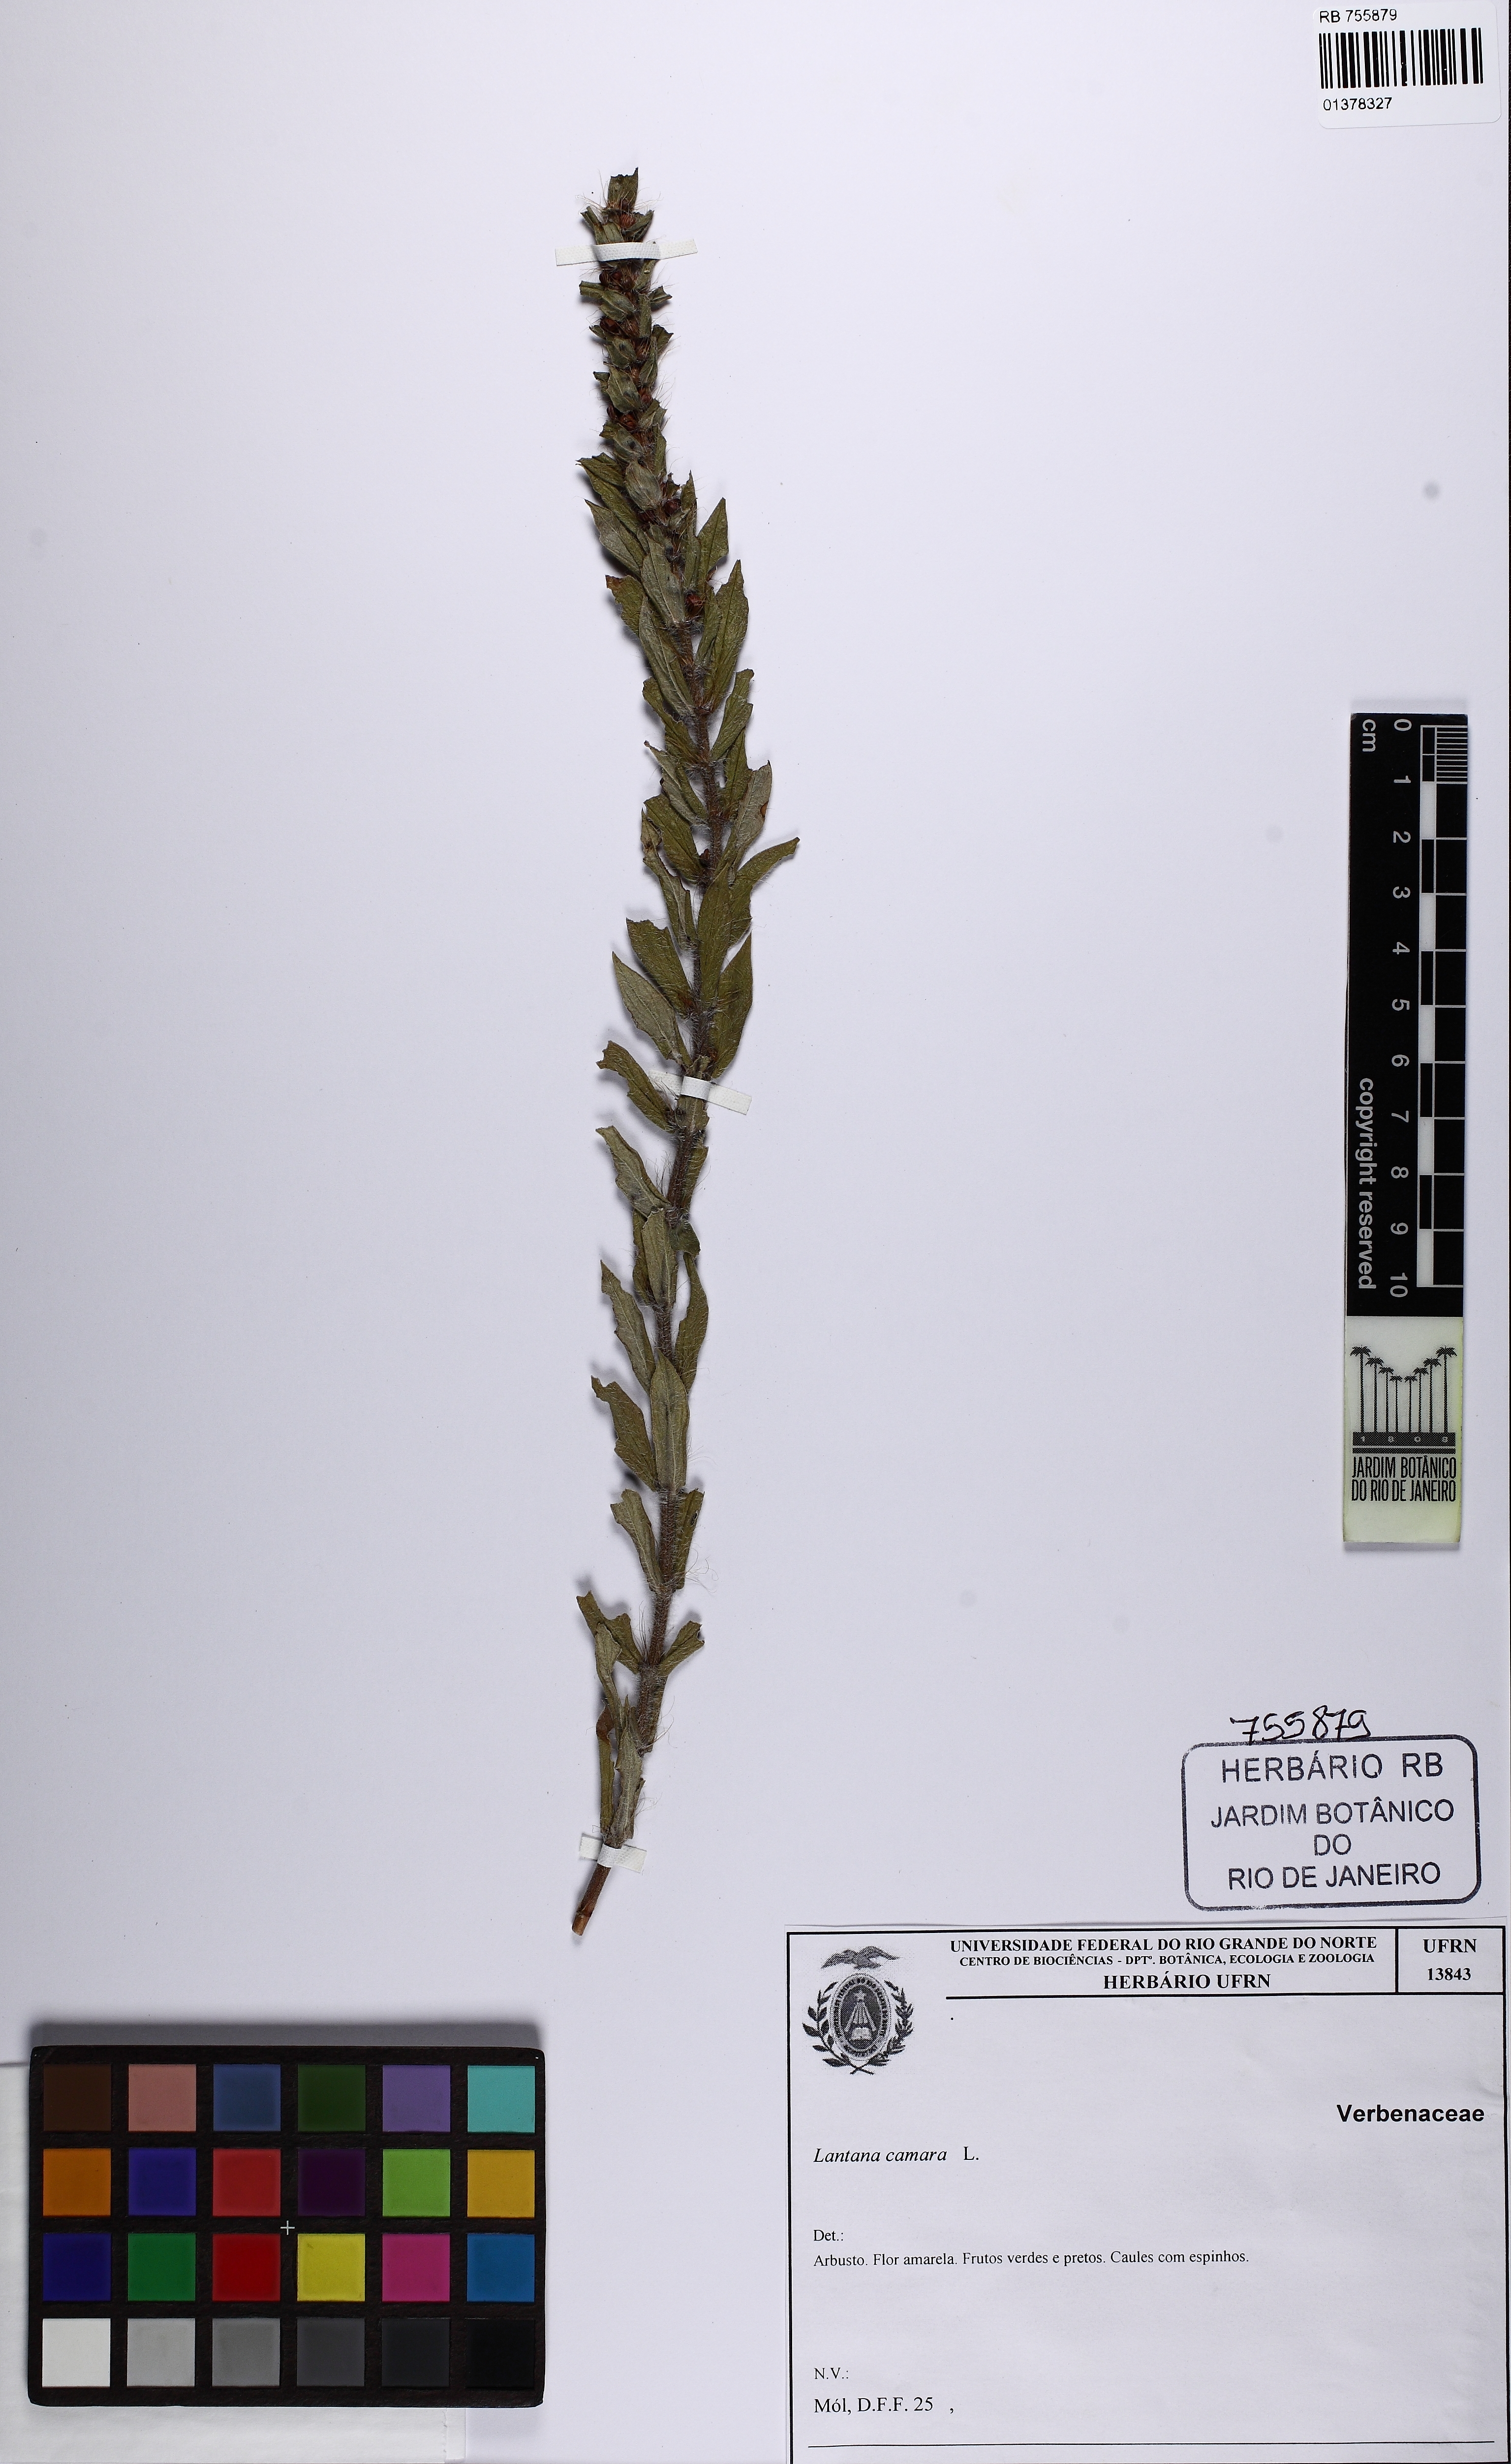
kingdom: Plantae
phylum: Tracheophyta
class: Magnoliopsida
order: Lamiales
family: Verbenaceae
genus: Lantana
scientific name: Lantana camara
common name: Lantana
